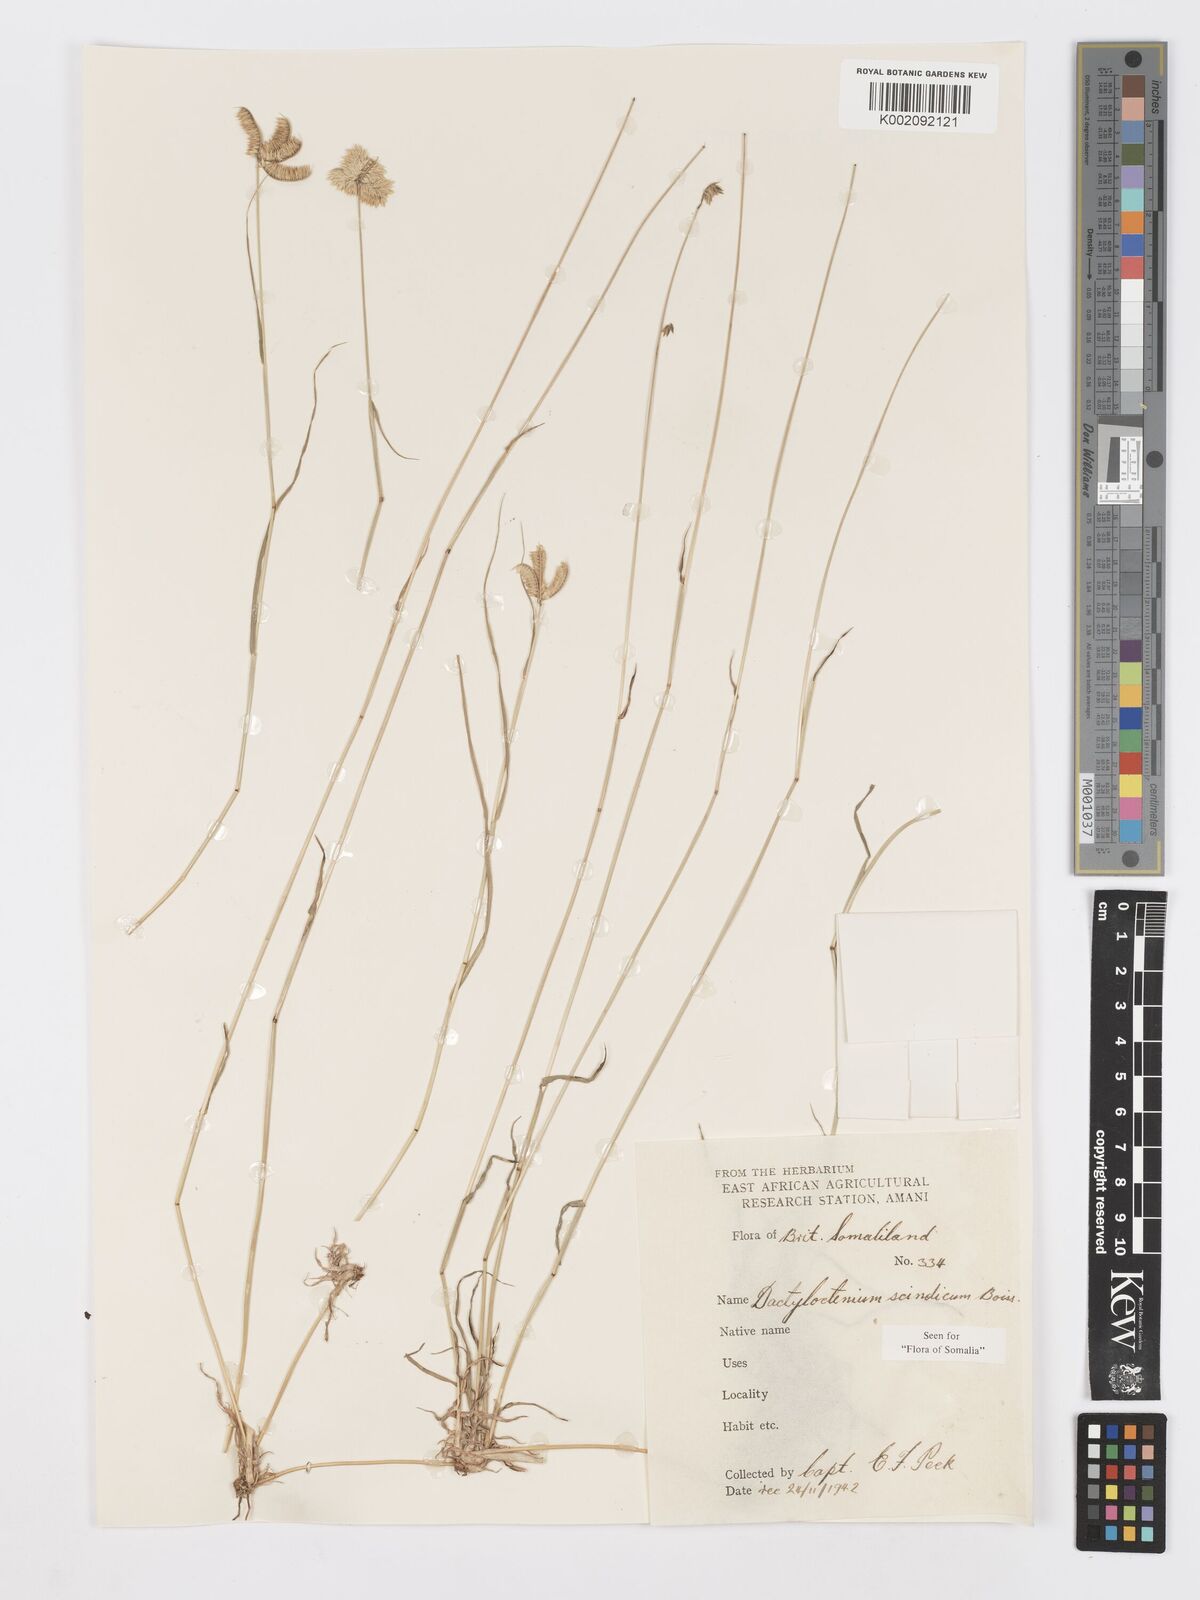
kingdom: Plantae
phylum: Tracheophyta
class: Liliopsida
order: Poales
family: Poaceae
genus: Dactyloctenium
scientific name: Dactyloctenium scindicum
